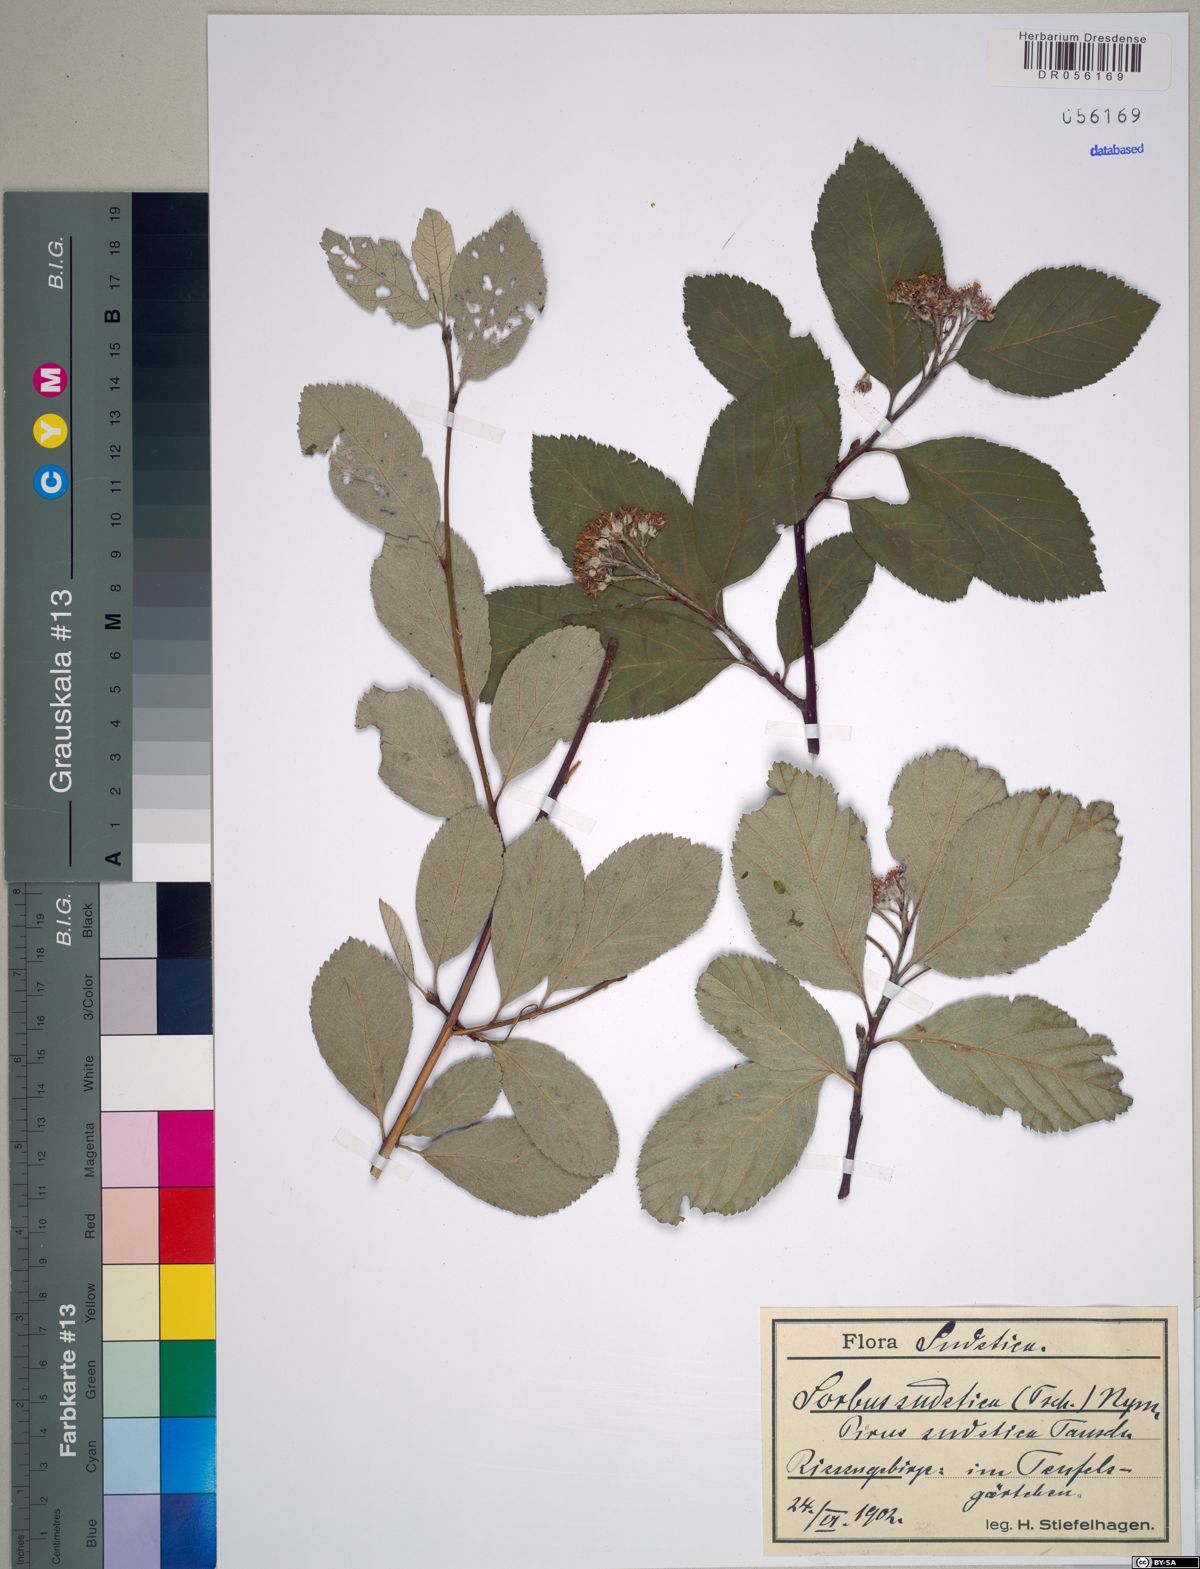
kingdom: Plantae
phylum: Tracheophyta
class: Magnoliopsida
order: Rosales
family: Rosaceae
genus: Sorbus
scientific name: Sorbus sudetica
